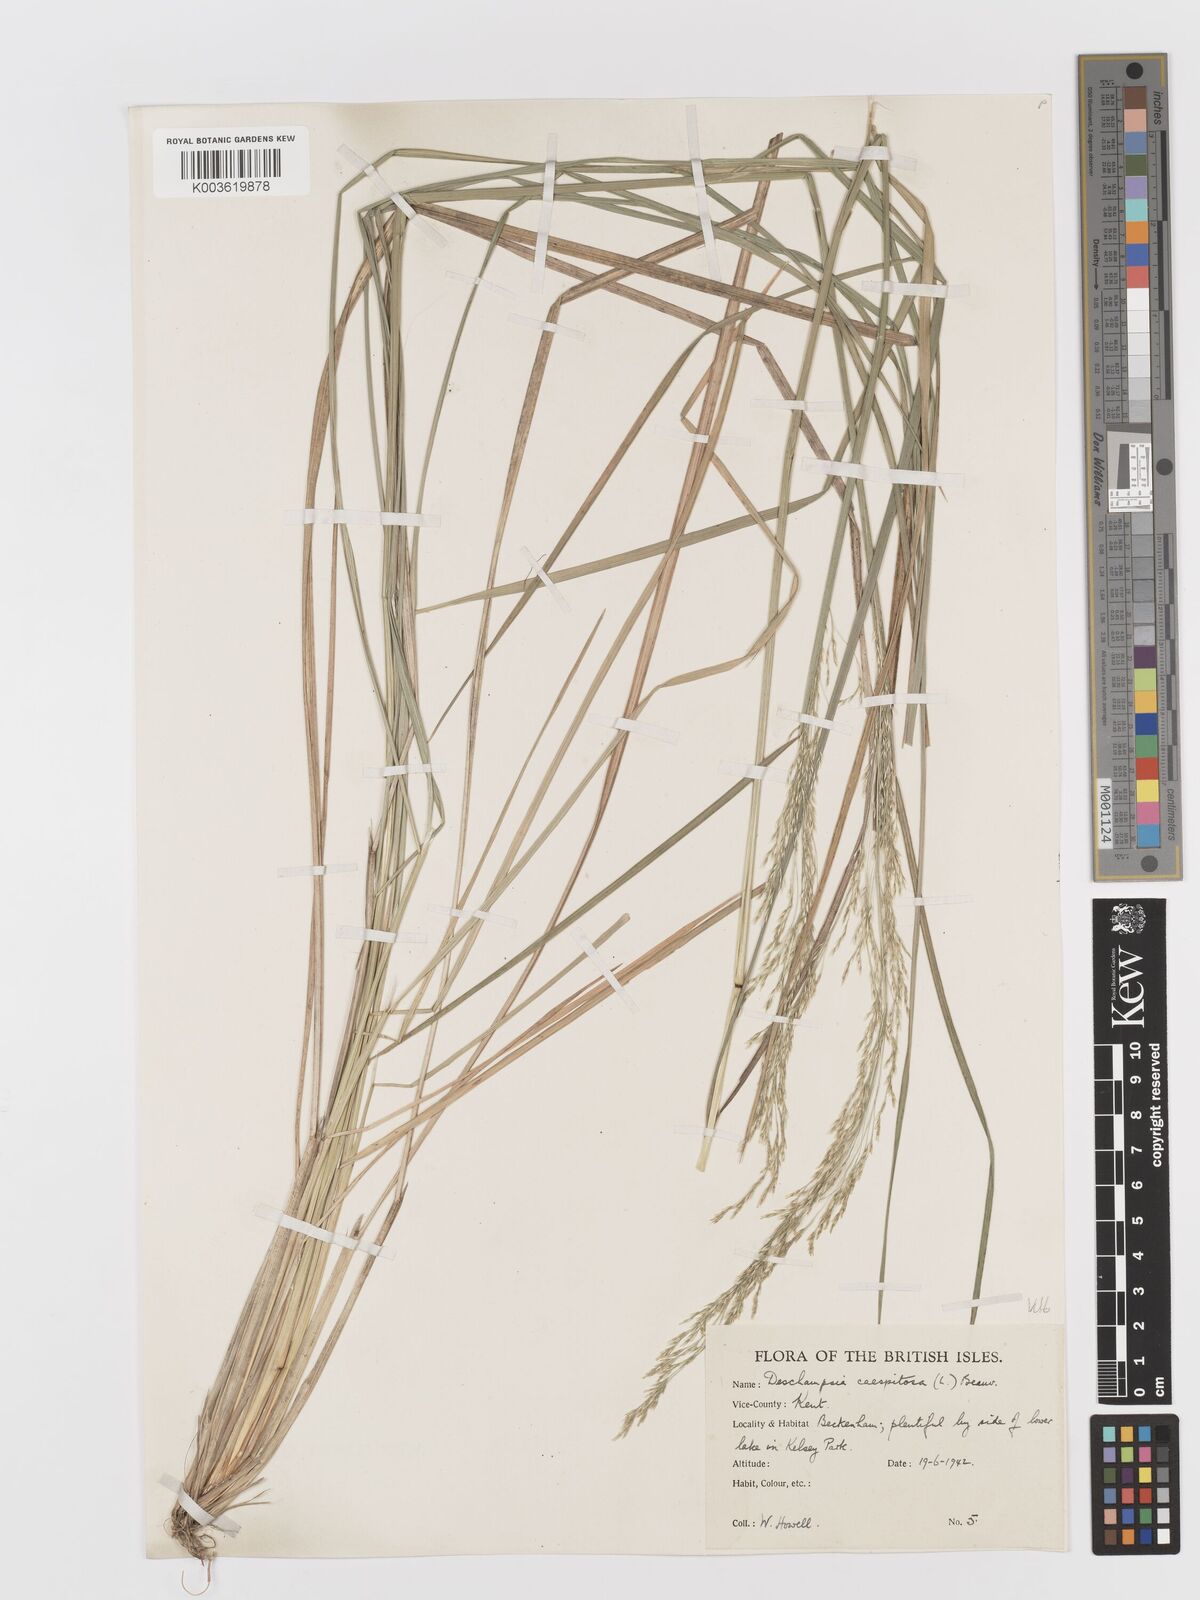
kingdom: Plantae
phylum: Tracheophyta
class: Liliopsida
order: Poales
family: Poaceae
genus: Deschampsia
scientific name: Deschampsia cespitosa
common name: Tufted hair-grass
